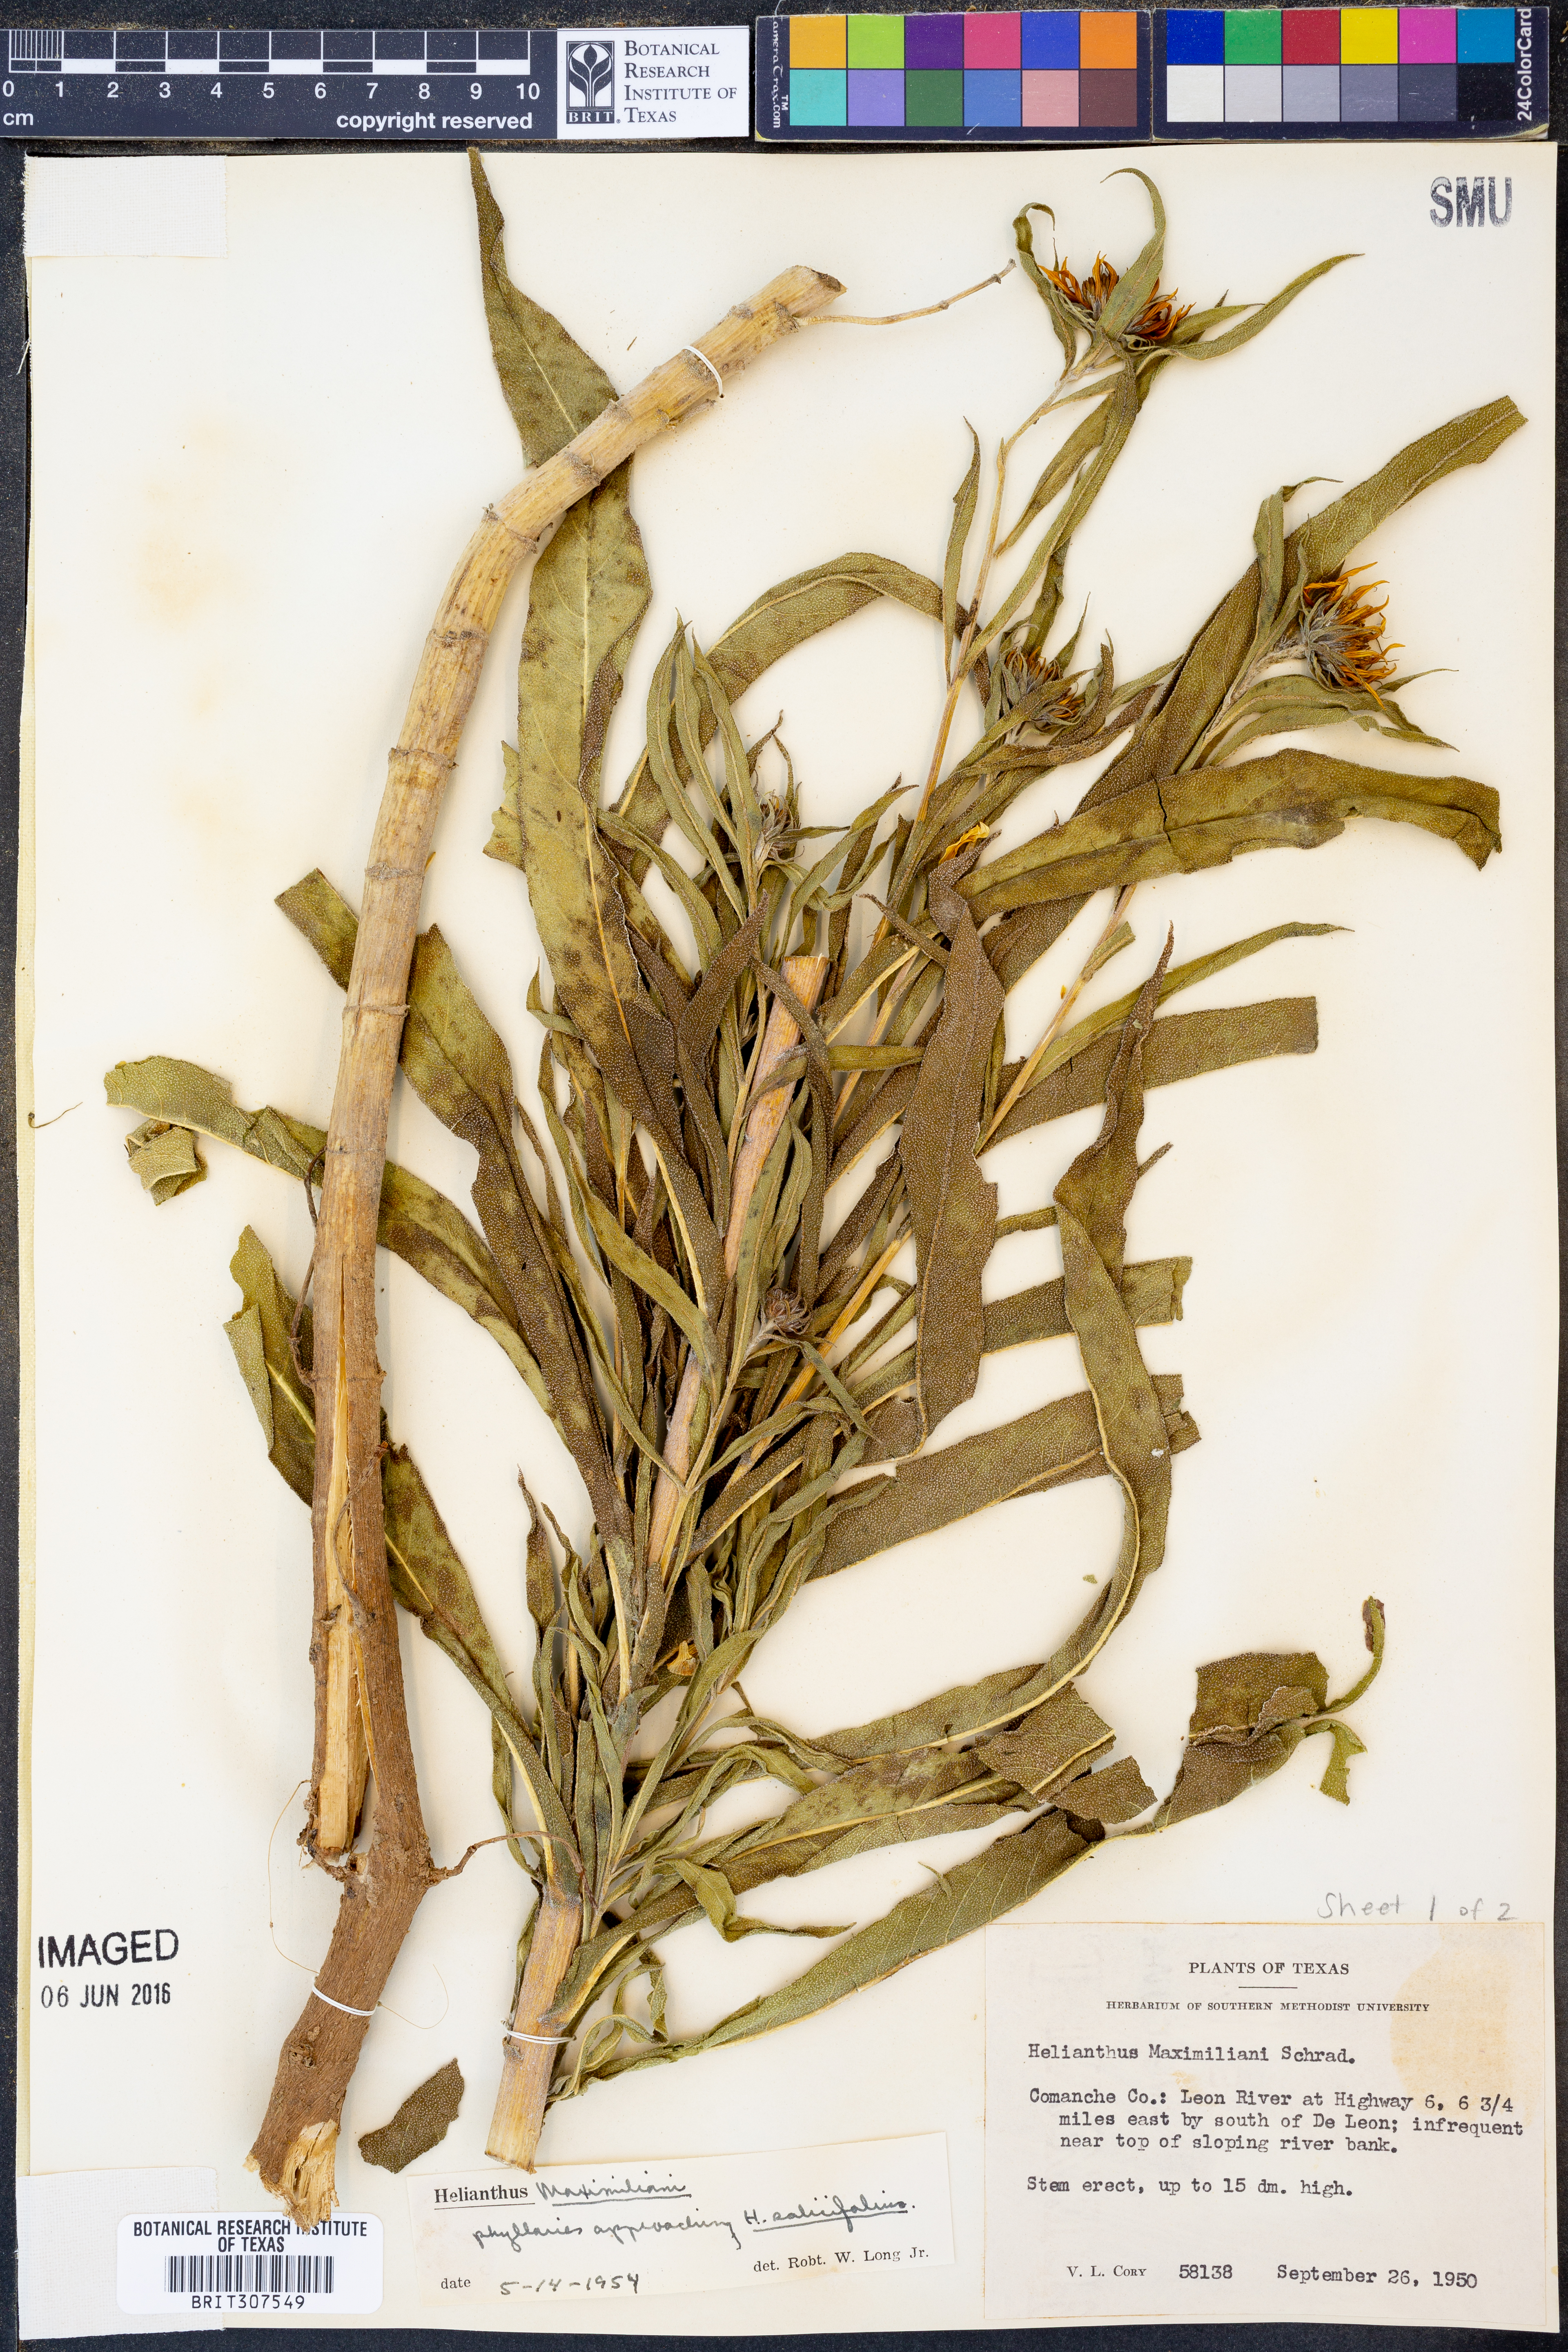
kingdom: Plantae
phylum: Tracheophyta
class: Magnoliopsida
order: Asterales
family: Asteraceae
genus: Helianthus
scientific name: Helianthus maximiliani
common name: Maximilian's sunflower
